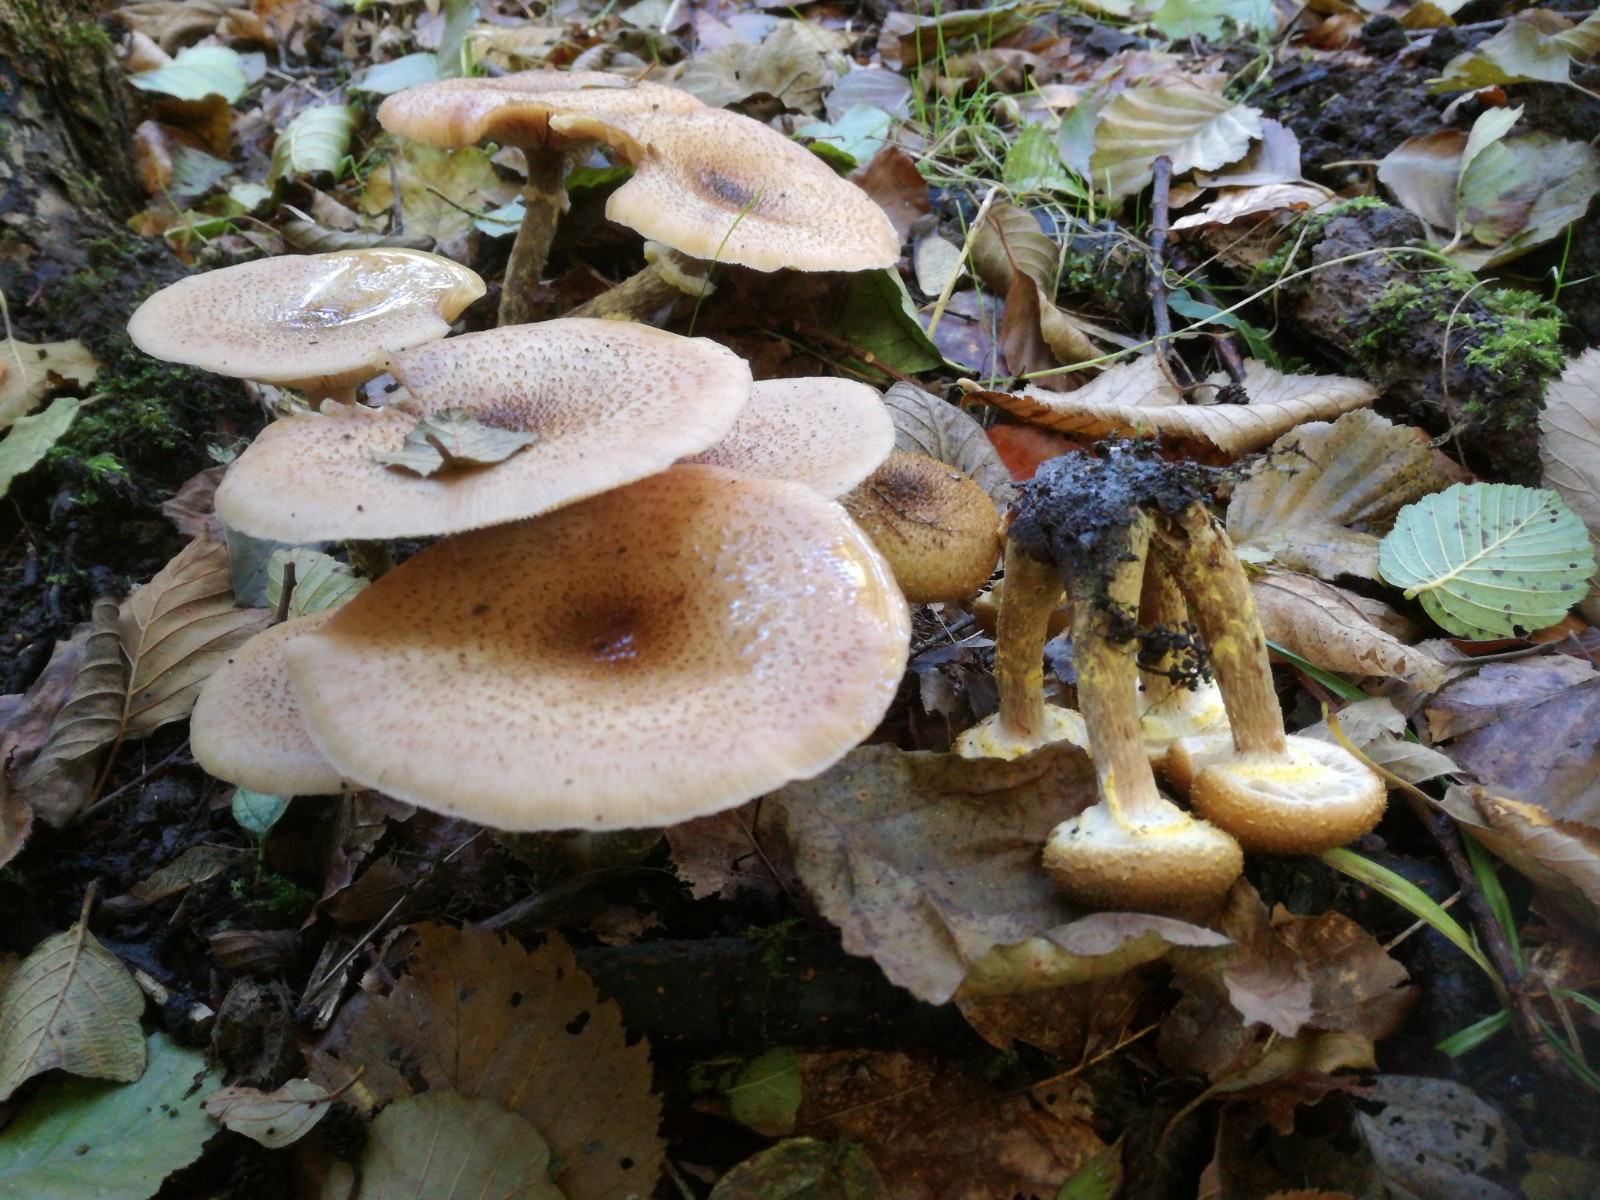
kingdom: Fungi
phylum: Basidiomycota
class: Agaricomycetes
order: Agaricales
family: Physalacriaceae
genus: Armillaria
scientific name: Armillaria lutea
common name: køllestokket honningsvamp
